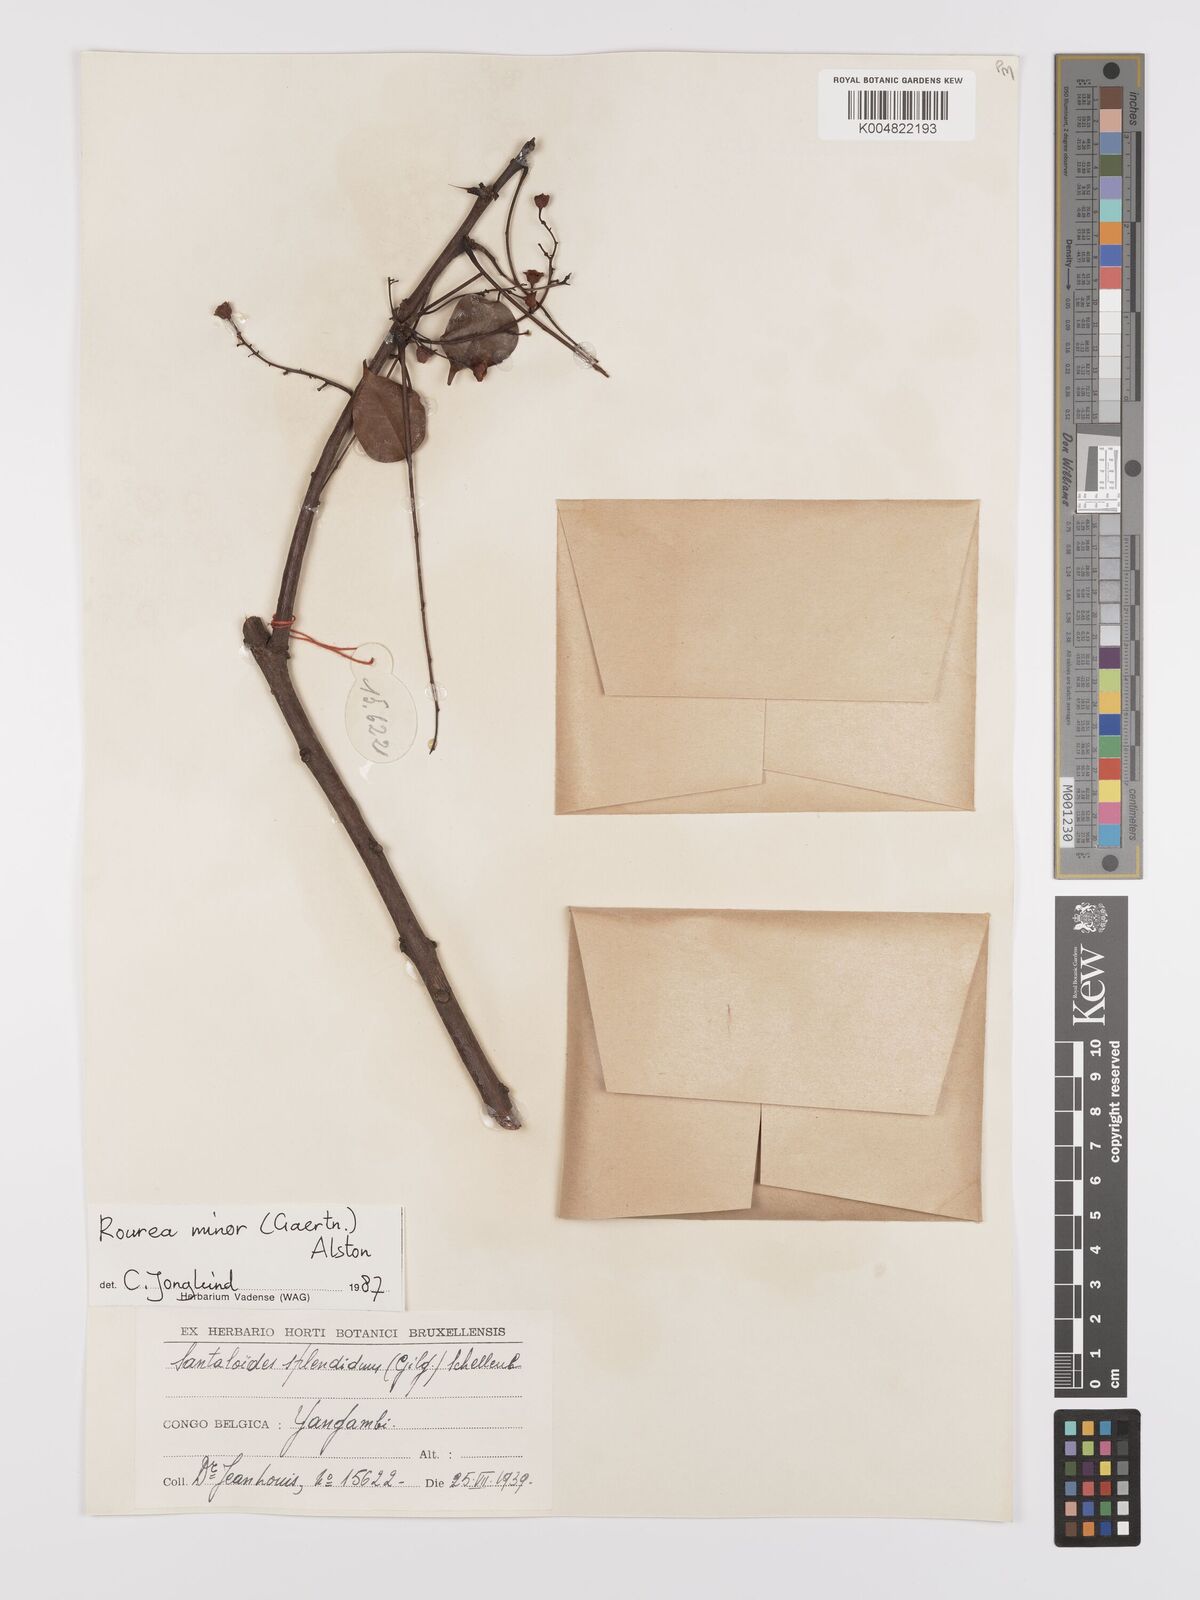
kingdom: Plantae
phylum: Tracheophyta
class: Magnoliopsida
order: Oxalidales
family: Connaraceae
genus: Rourea
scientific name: Rourea minor
